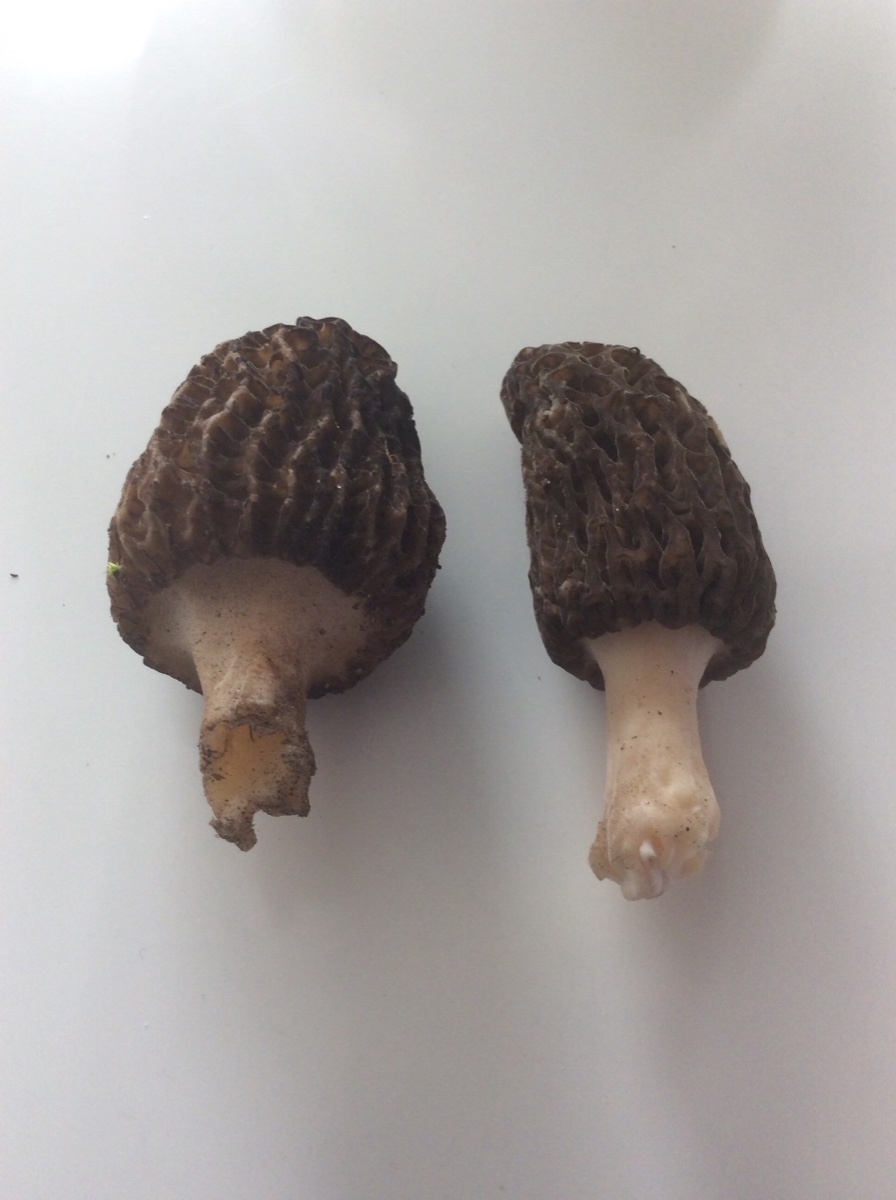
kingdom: Fungi
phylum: Ascomycota
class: Pezizomycetes
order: Pezizales
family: Morchellaceae
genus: Morchella
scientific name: Morchella esculenta
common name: Morel
